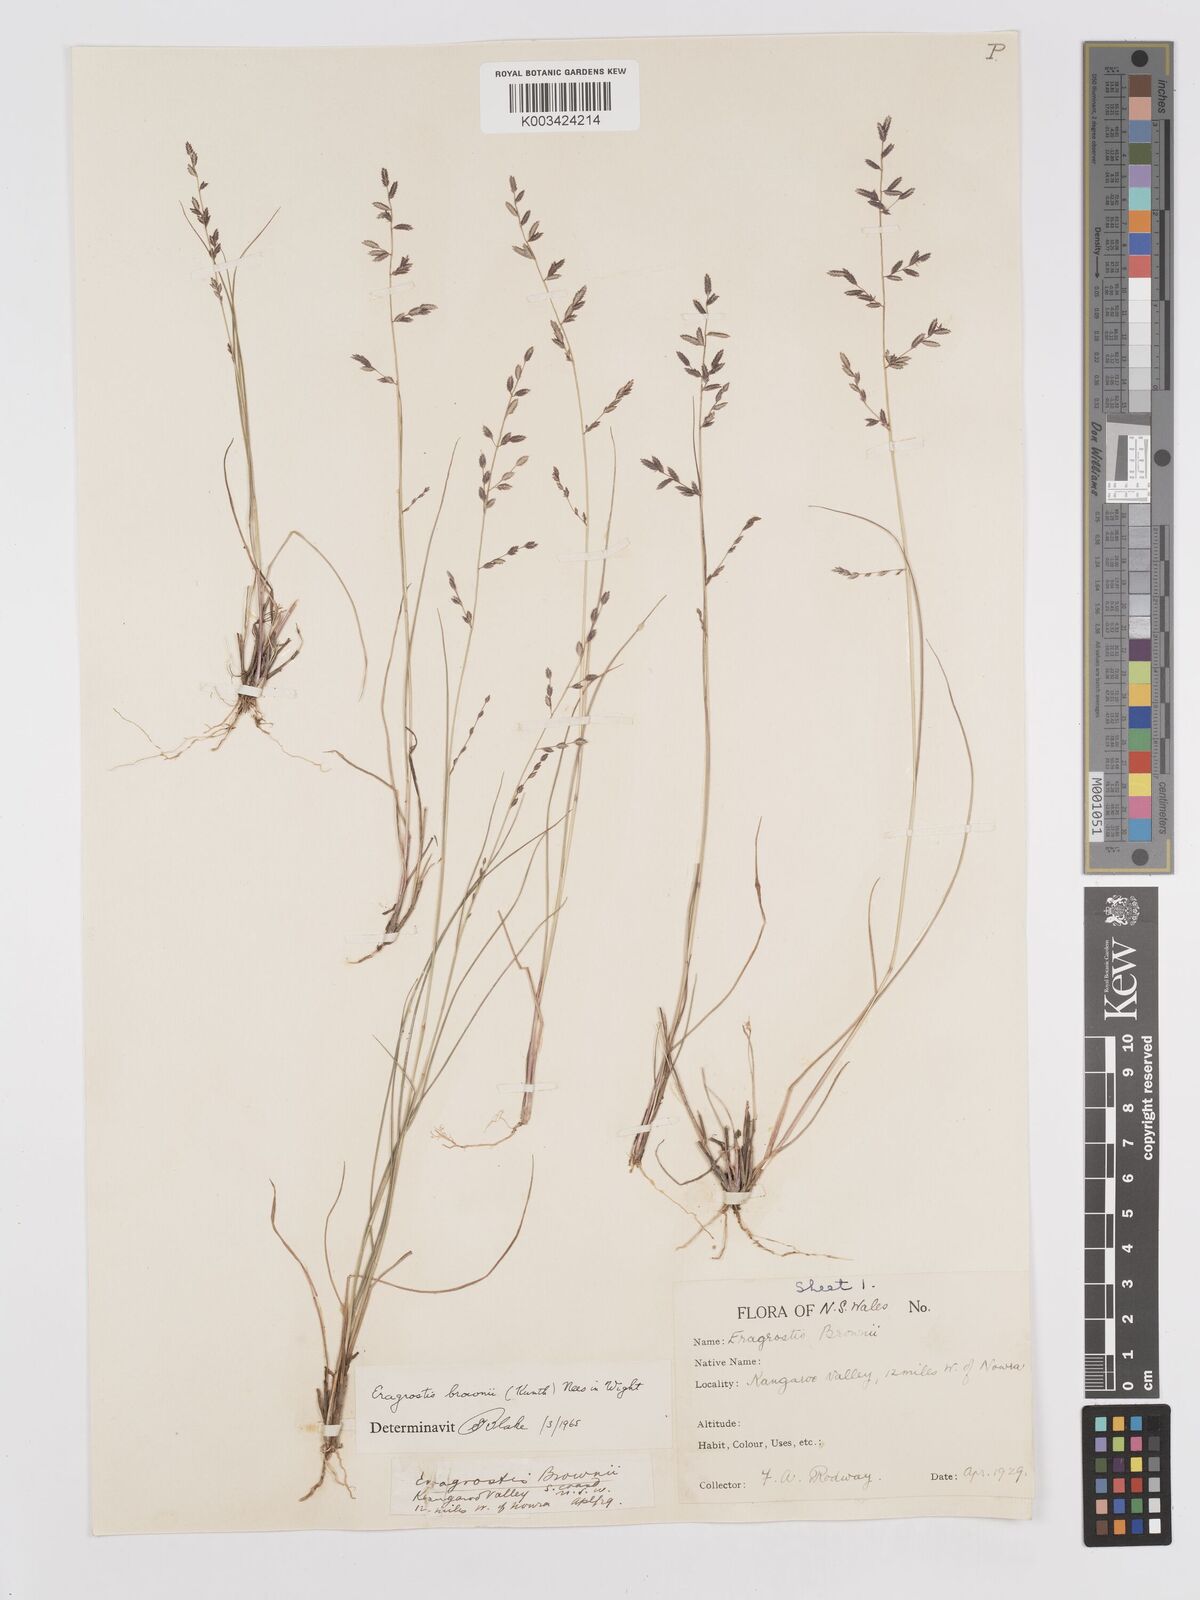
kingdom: Plantae
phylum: Tracheophyta
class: Liliopsida
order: Poales
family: Poaceae
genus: Eragrostis
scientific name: Eragrostis brownii
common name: Lovegrass
